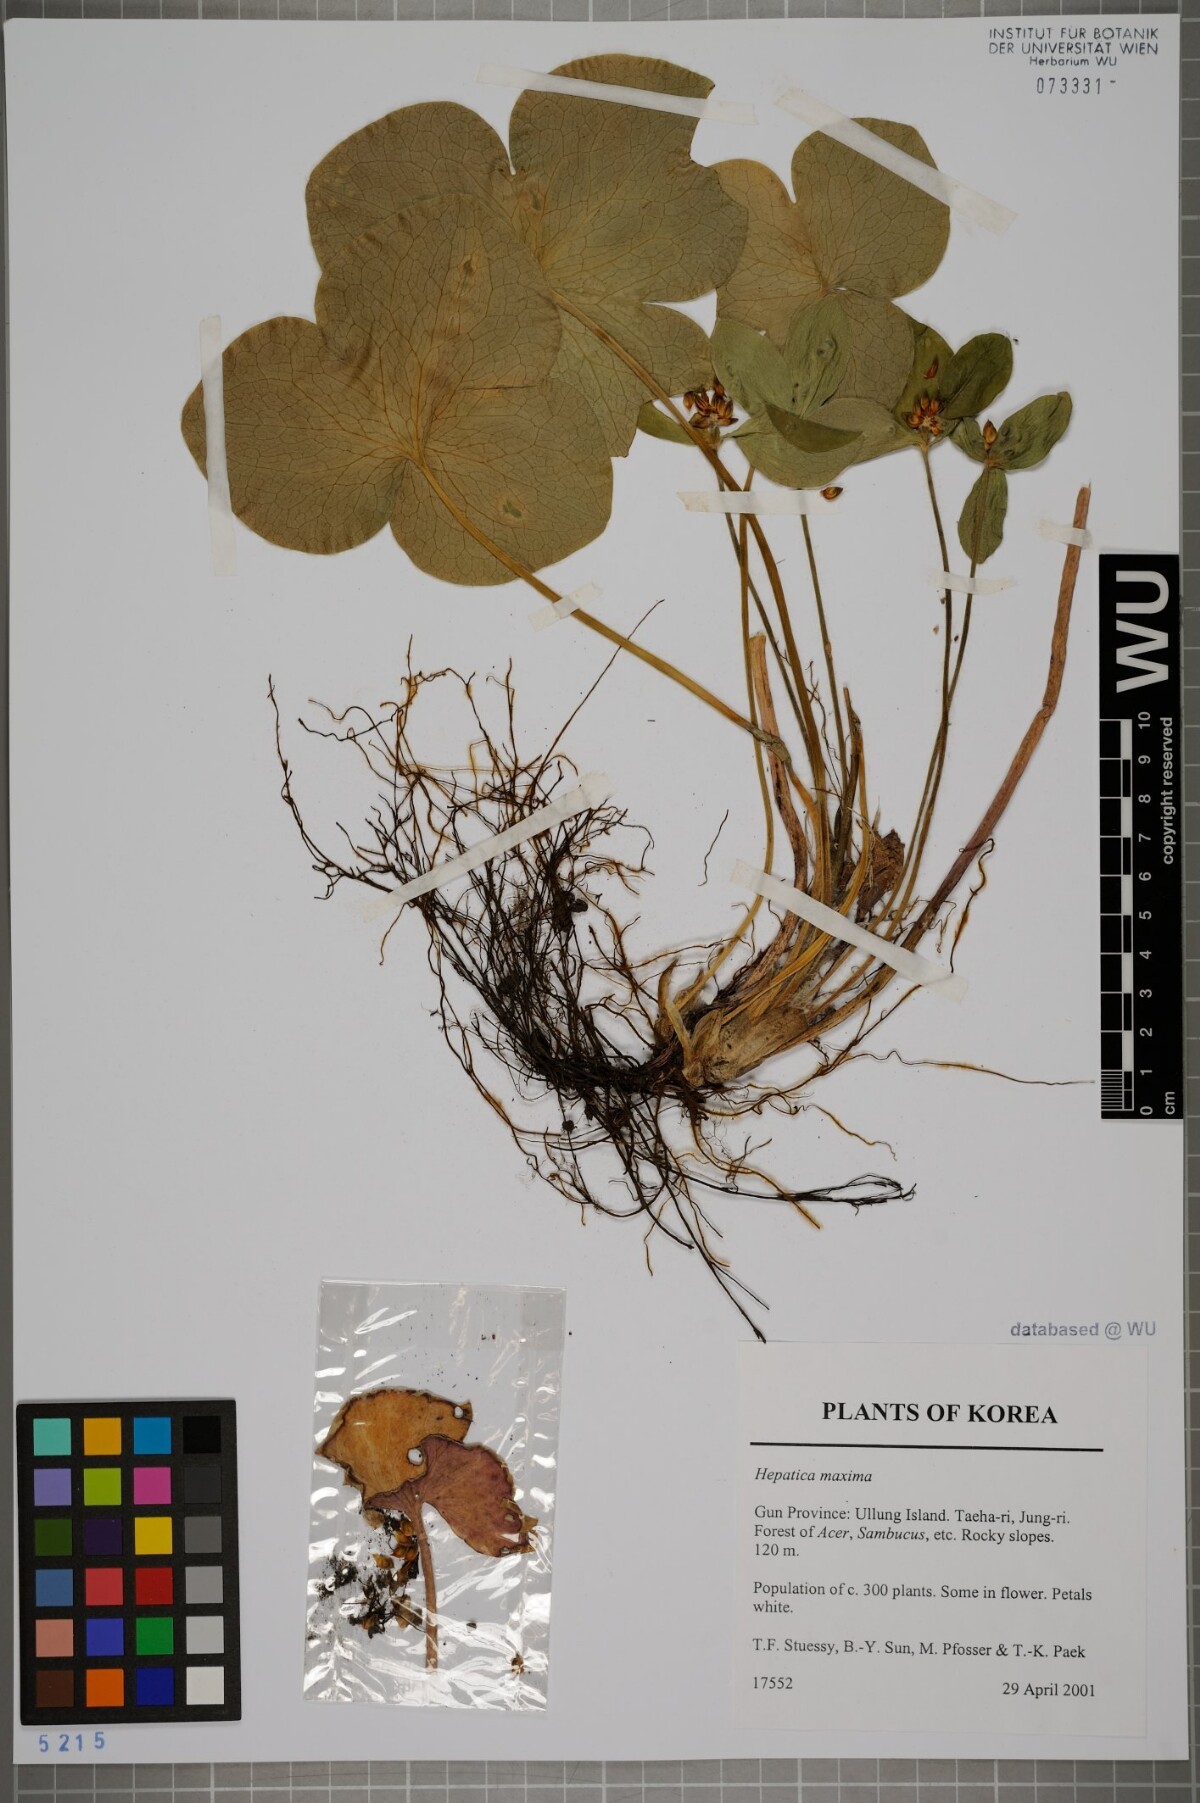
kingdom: Plantae
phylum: Tracheophyta
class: Magnoliopsida
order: Ranunculales
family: Ranunculaceae
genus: Hepatica
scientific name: Hepatica maxima
